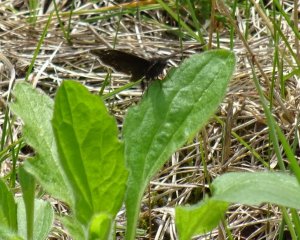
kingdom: Animalia
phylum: Arthropoda
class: Insecta
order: Lepidoptera
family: Hesperiidae
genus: Erynnis
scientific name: Erynnis
